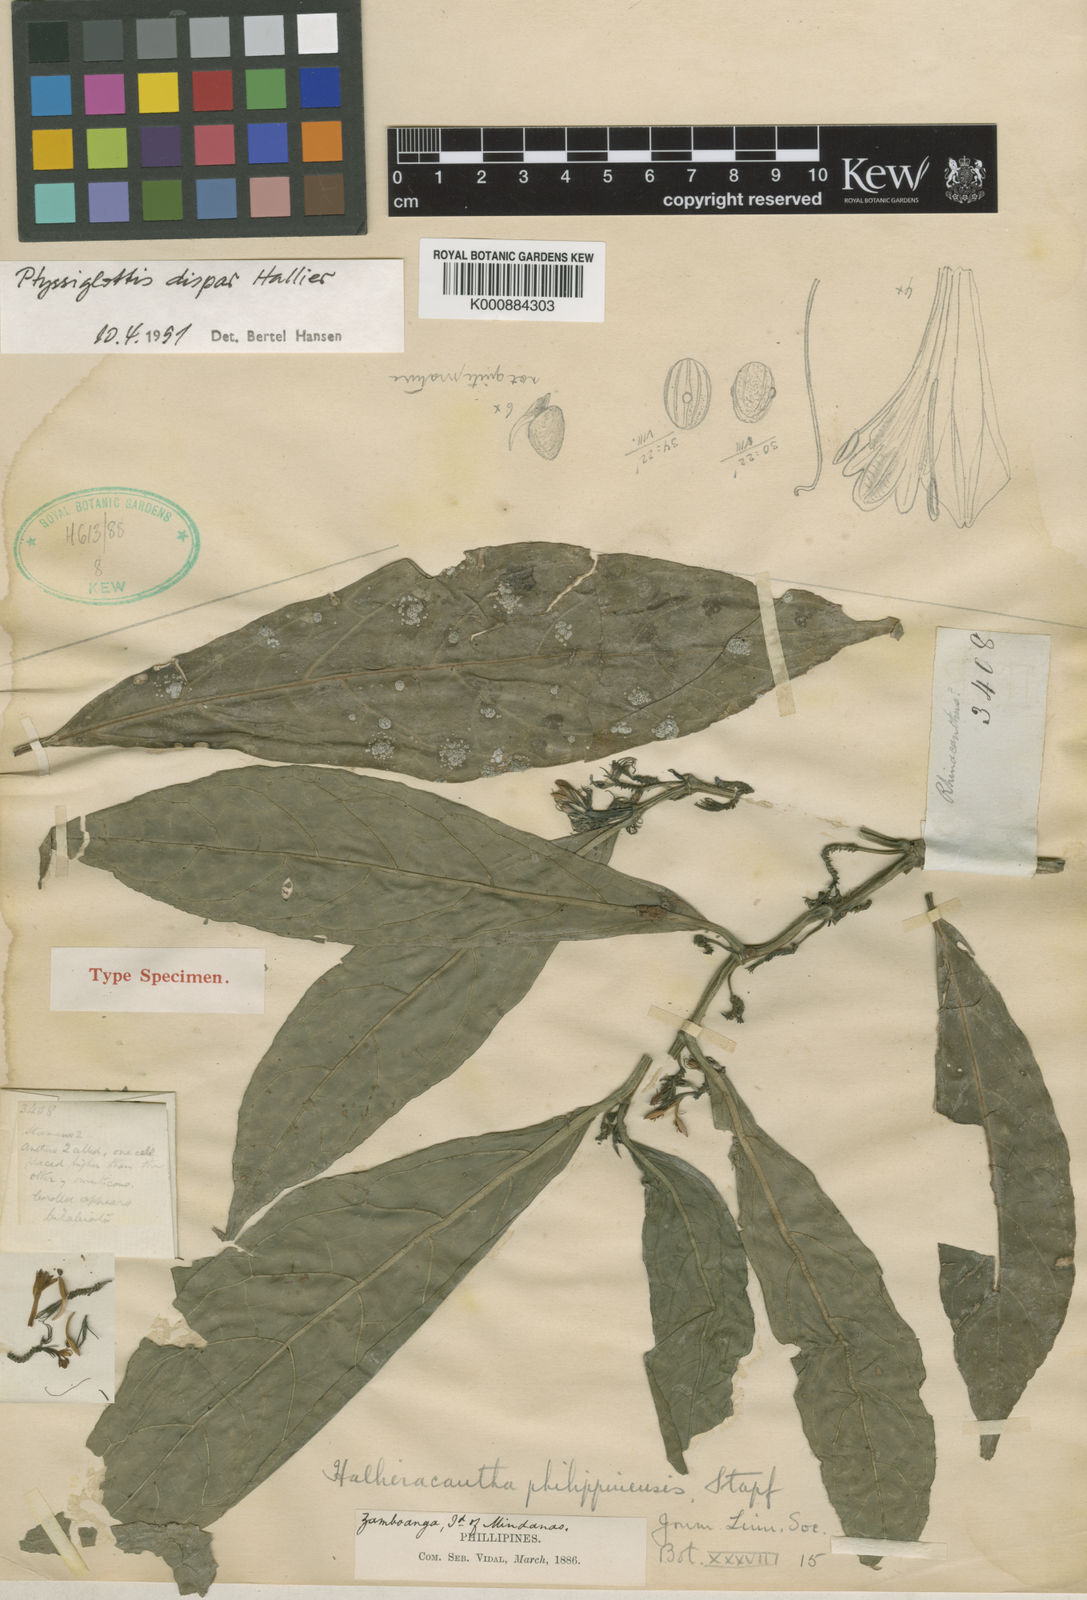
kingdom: Plantae
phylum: Tracheophyta
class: Magnoliopsida
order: Lamiales
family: Acanthaceae
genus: Justicia
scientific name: Justicia pulgarensis
